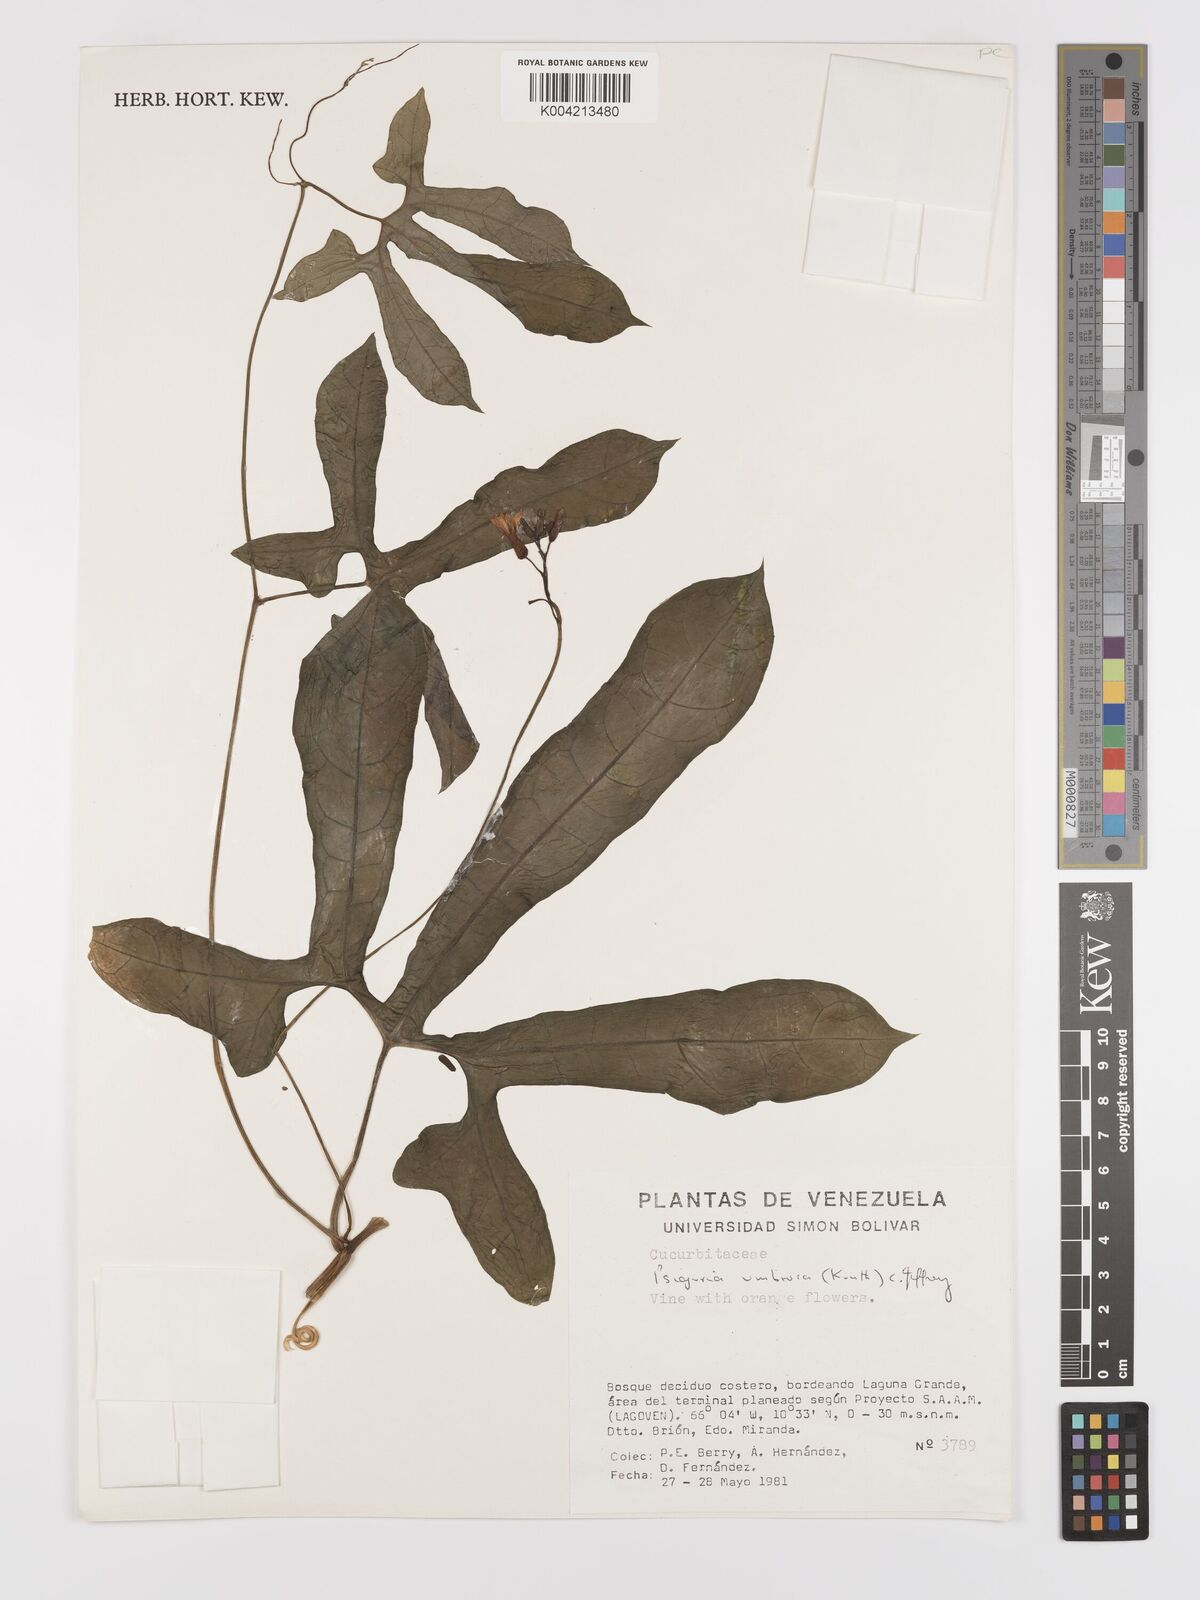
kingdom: Plantae
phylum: Tracheophyta
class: Magnoliopsida
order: Cucurbitales
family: Cucurbitaceae
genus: Psiguria
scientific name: Psiguria umbrosa
